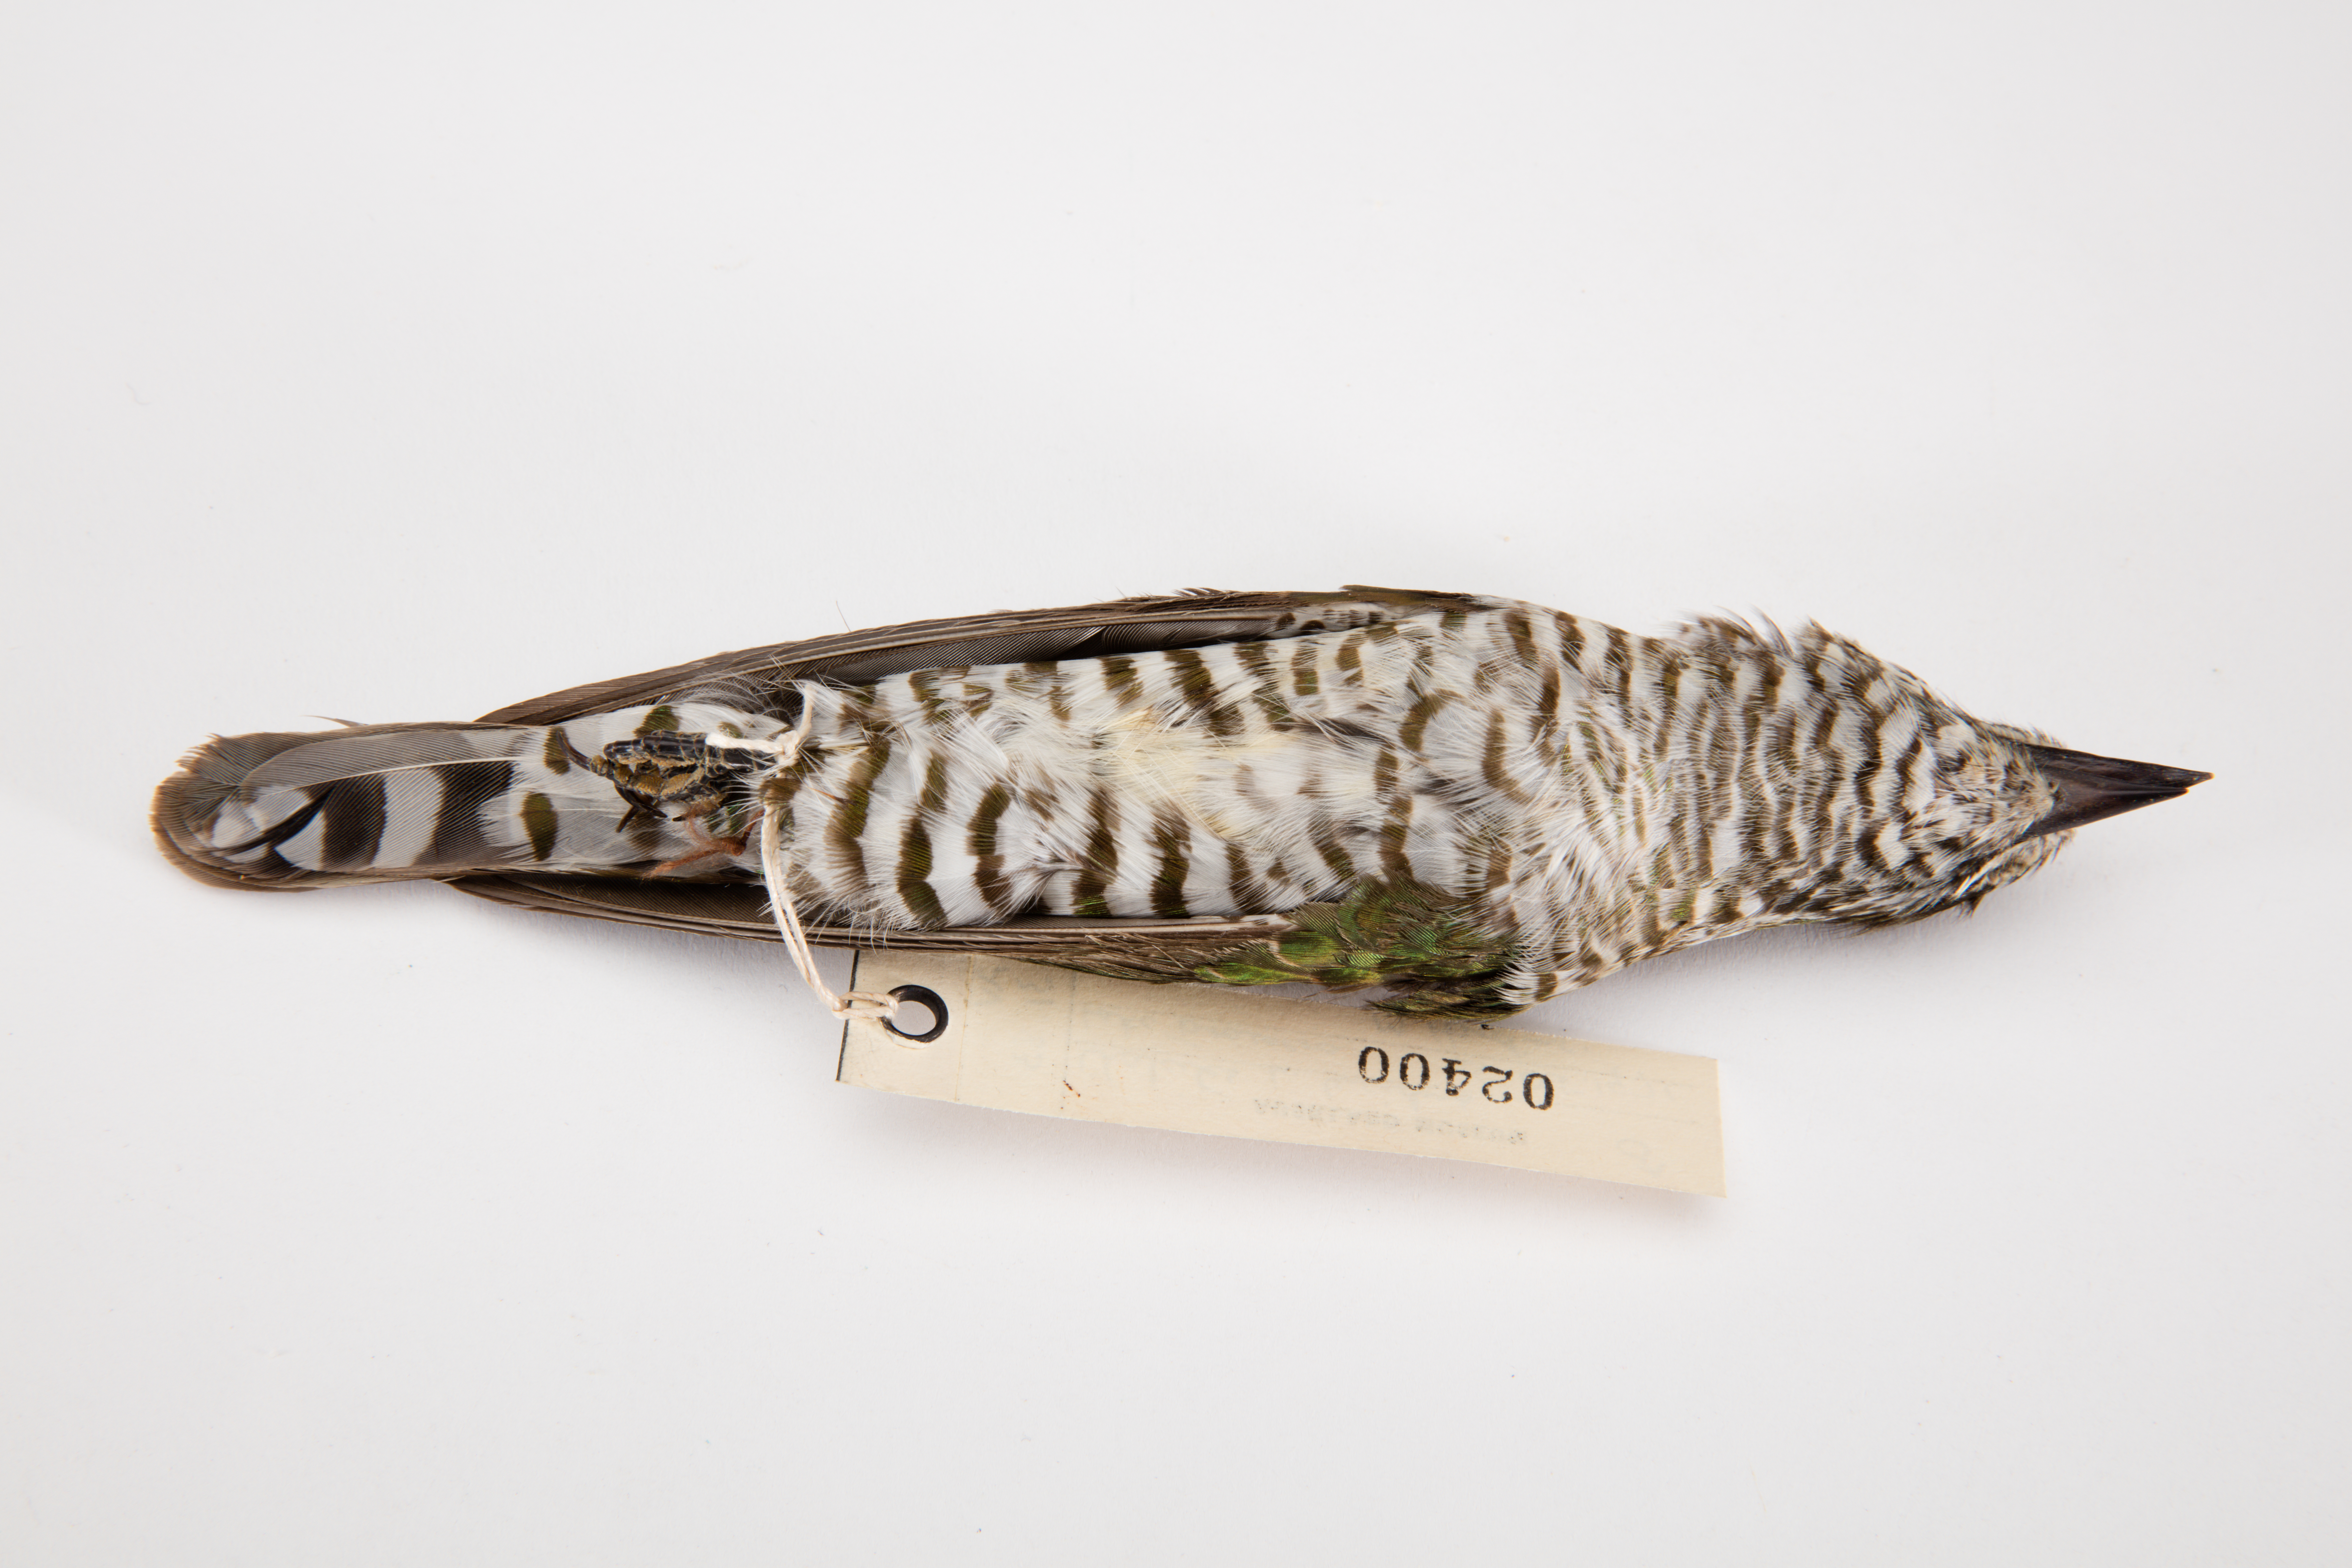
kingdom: Animalia
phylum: Chordata
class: Aves
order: Cuculiformes
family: Cuculidae
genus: Chrysococcyx
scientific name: Chrysococcyx lucidus
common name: Shining bronze cuckoo
